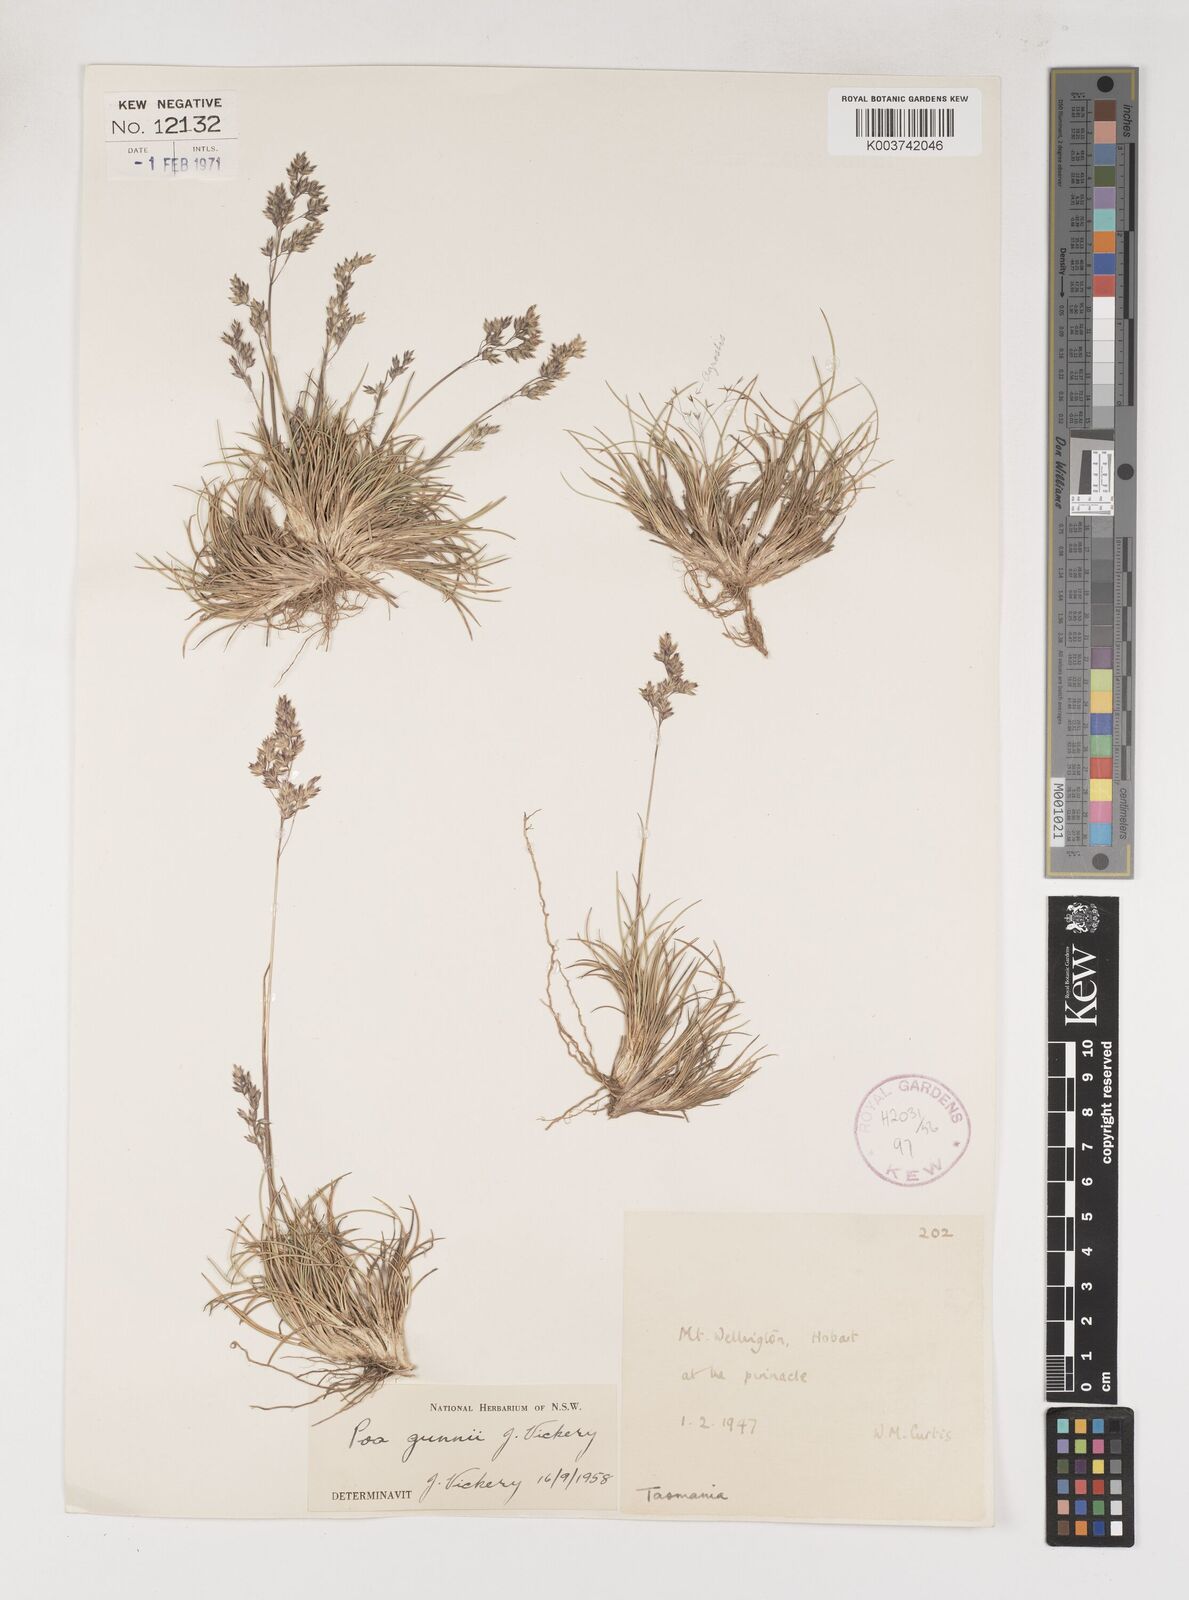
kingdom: Plantae
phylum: Tracheophyta
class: Liliopsida
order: Poales
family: Poaceae
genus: Poa
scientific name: Poa gunnii
